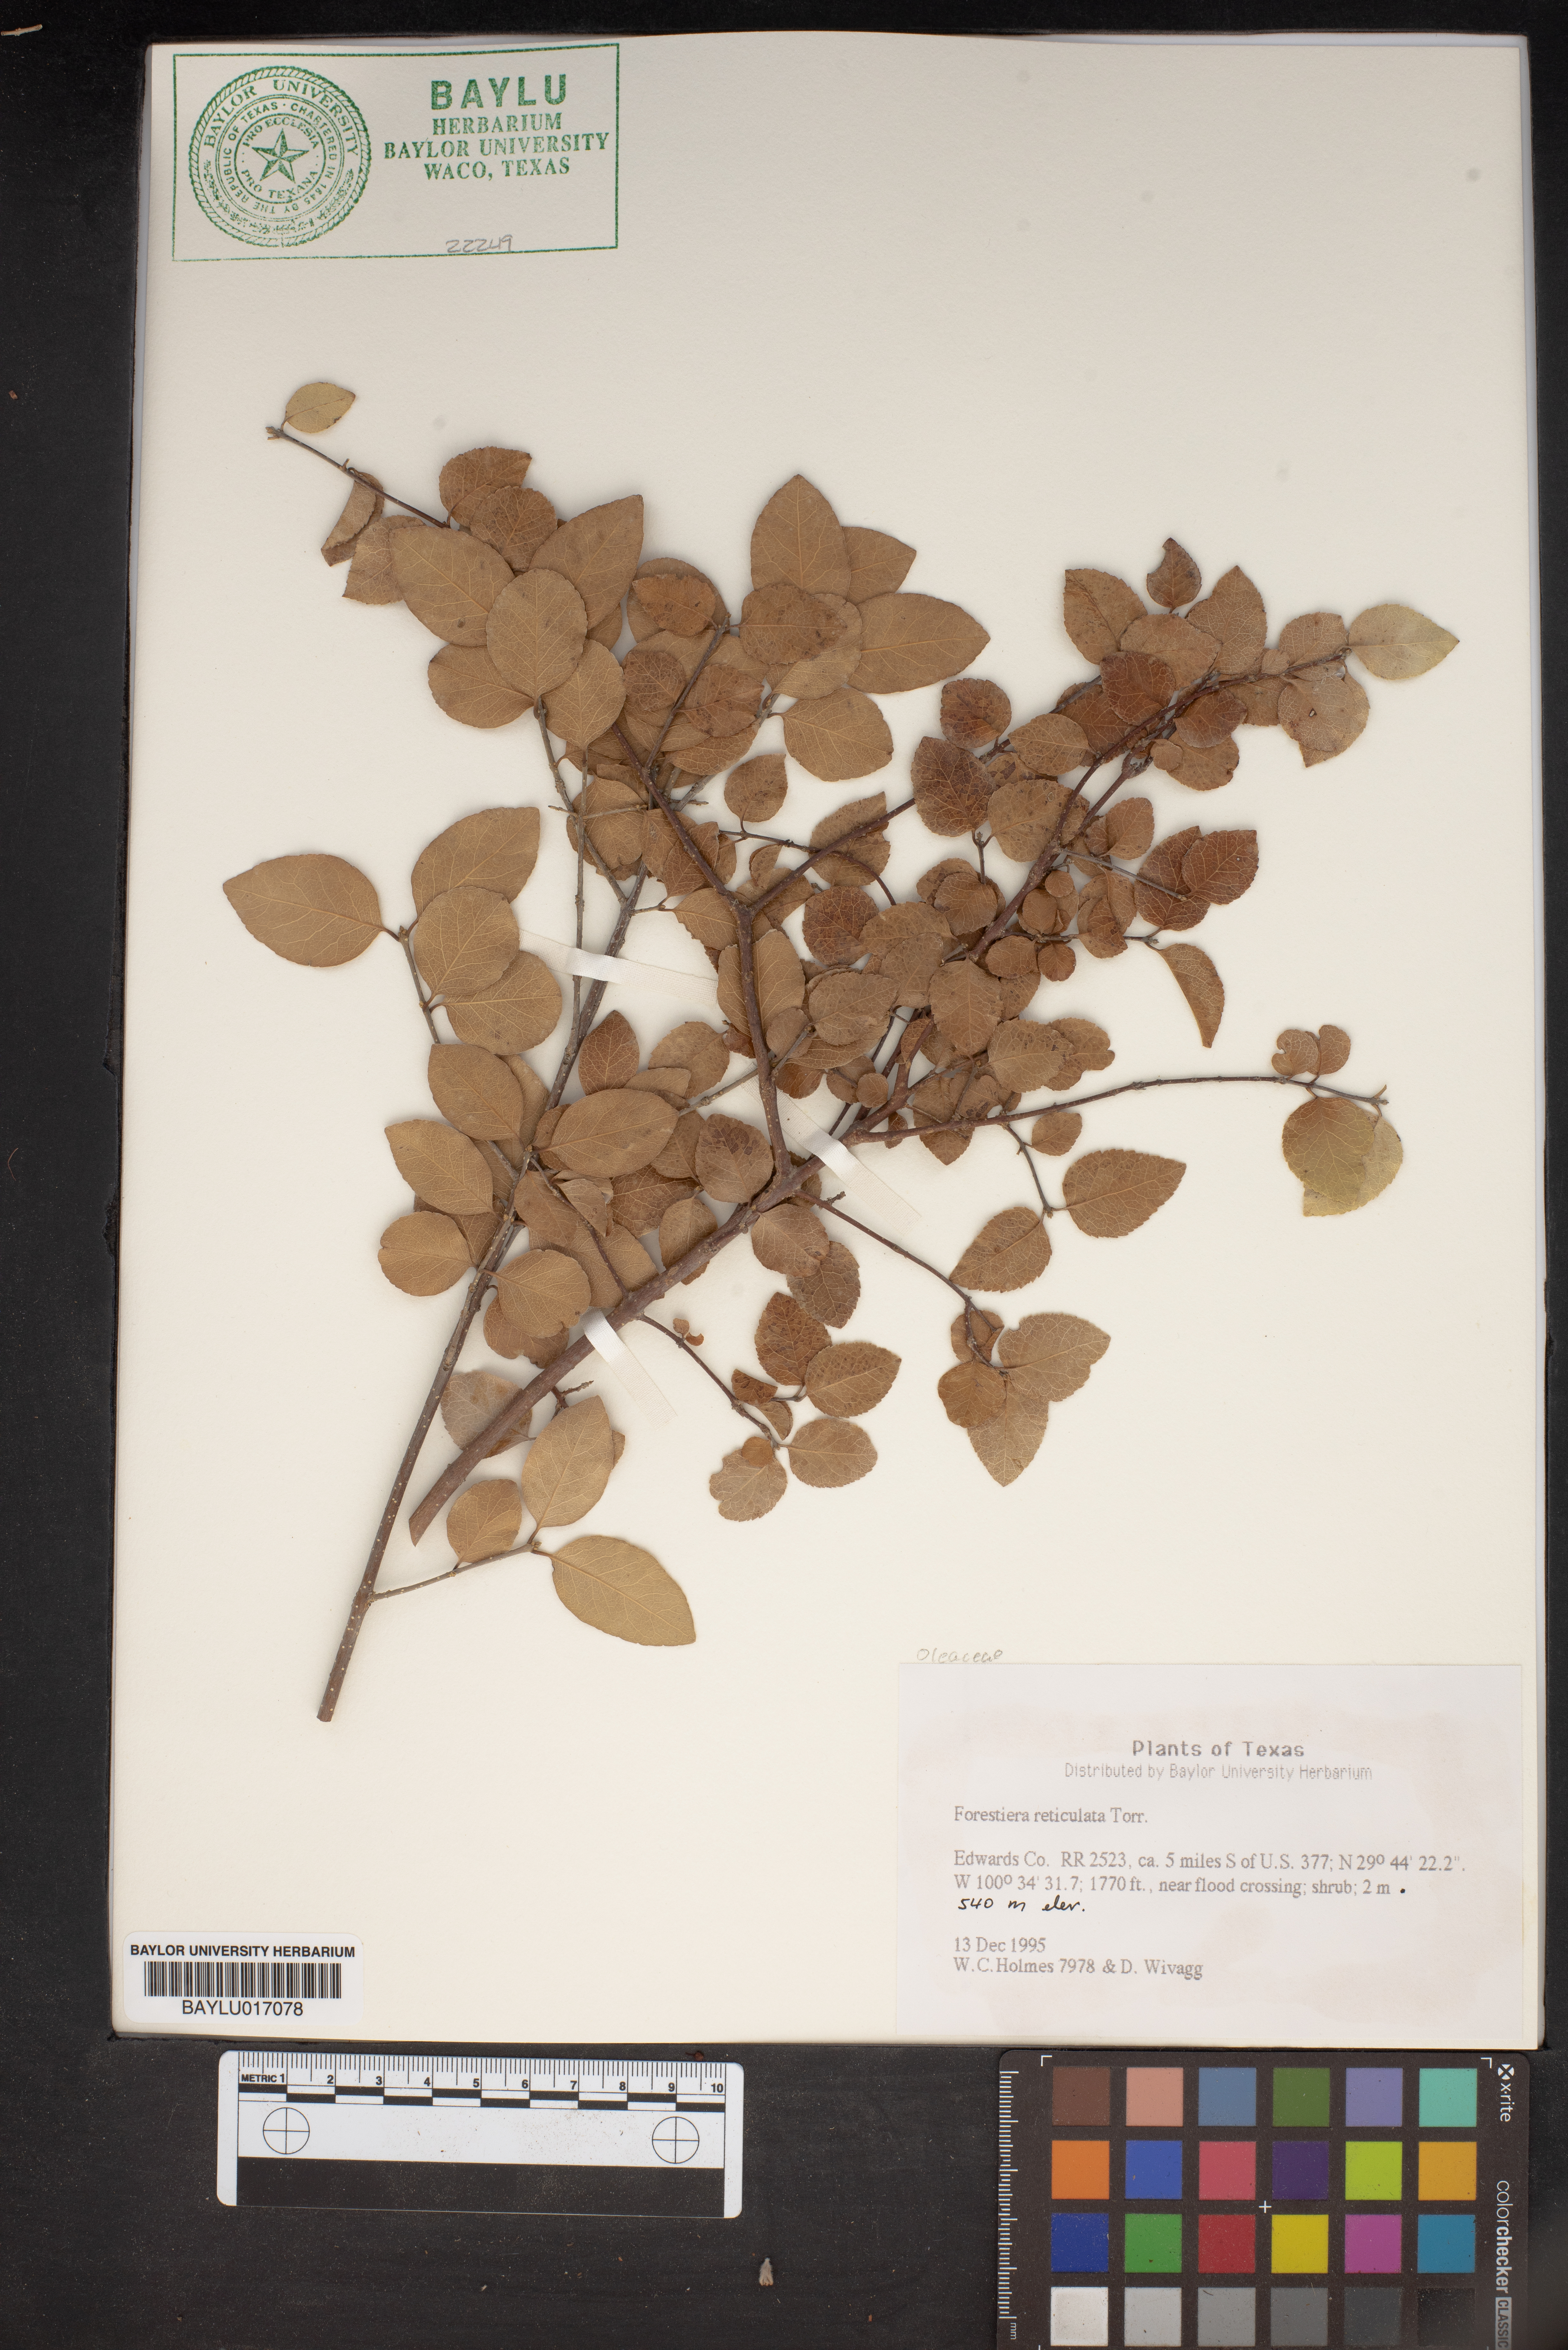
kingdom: Plantae
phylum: Tracheophyta
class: Magnoliopsida
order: Lamiales
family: Oleaceae
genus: Forestiera
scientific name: Forestiera reticulata
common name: Netleaf swamp-privet
